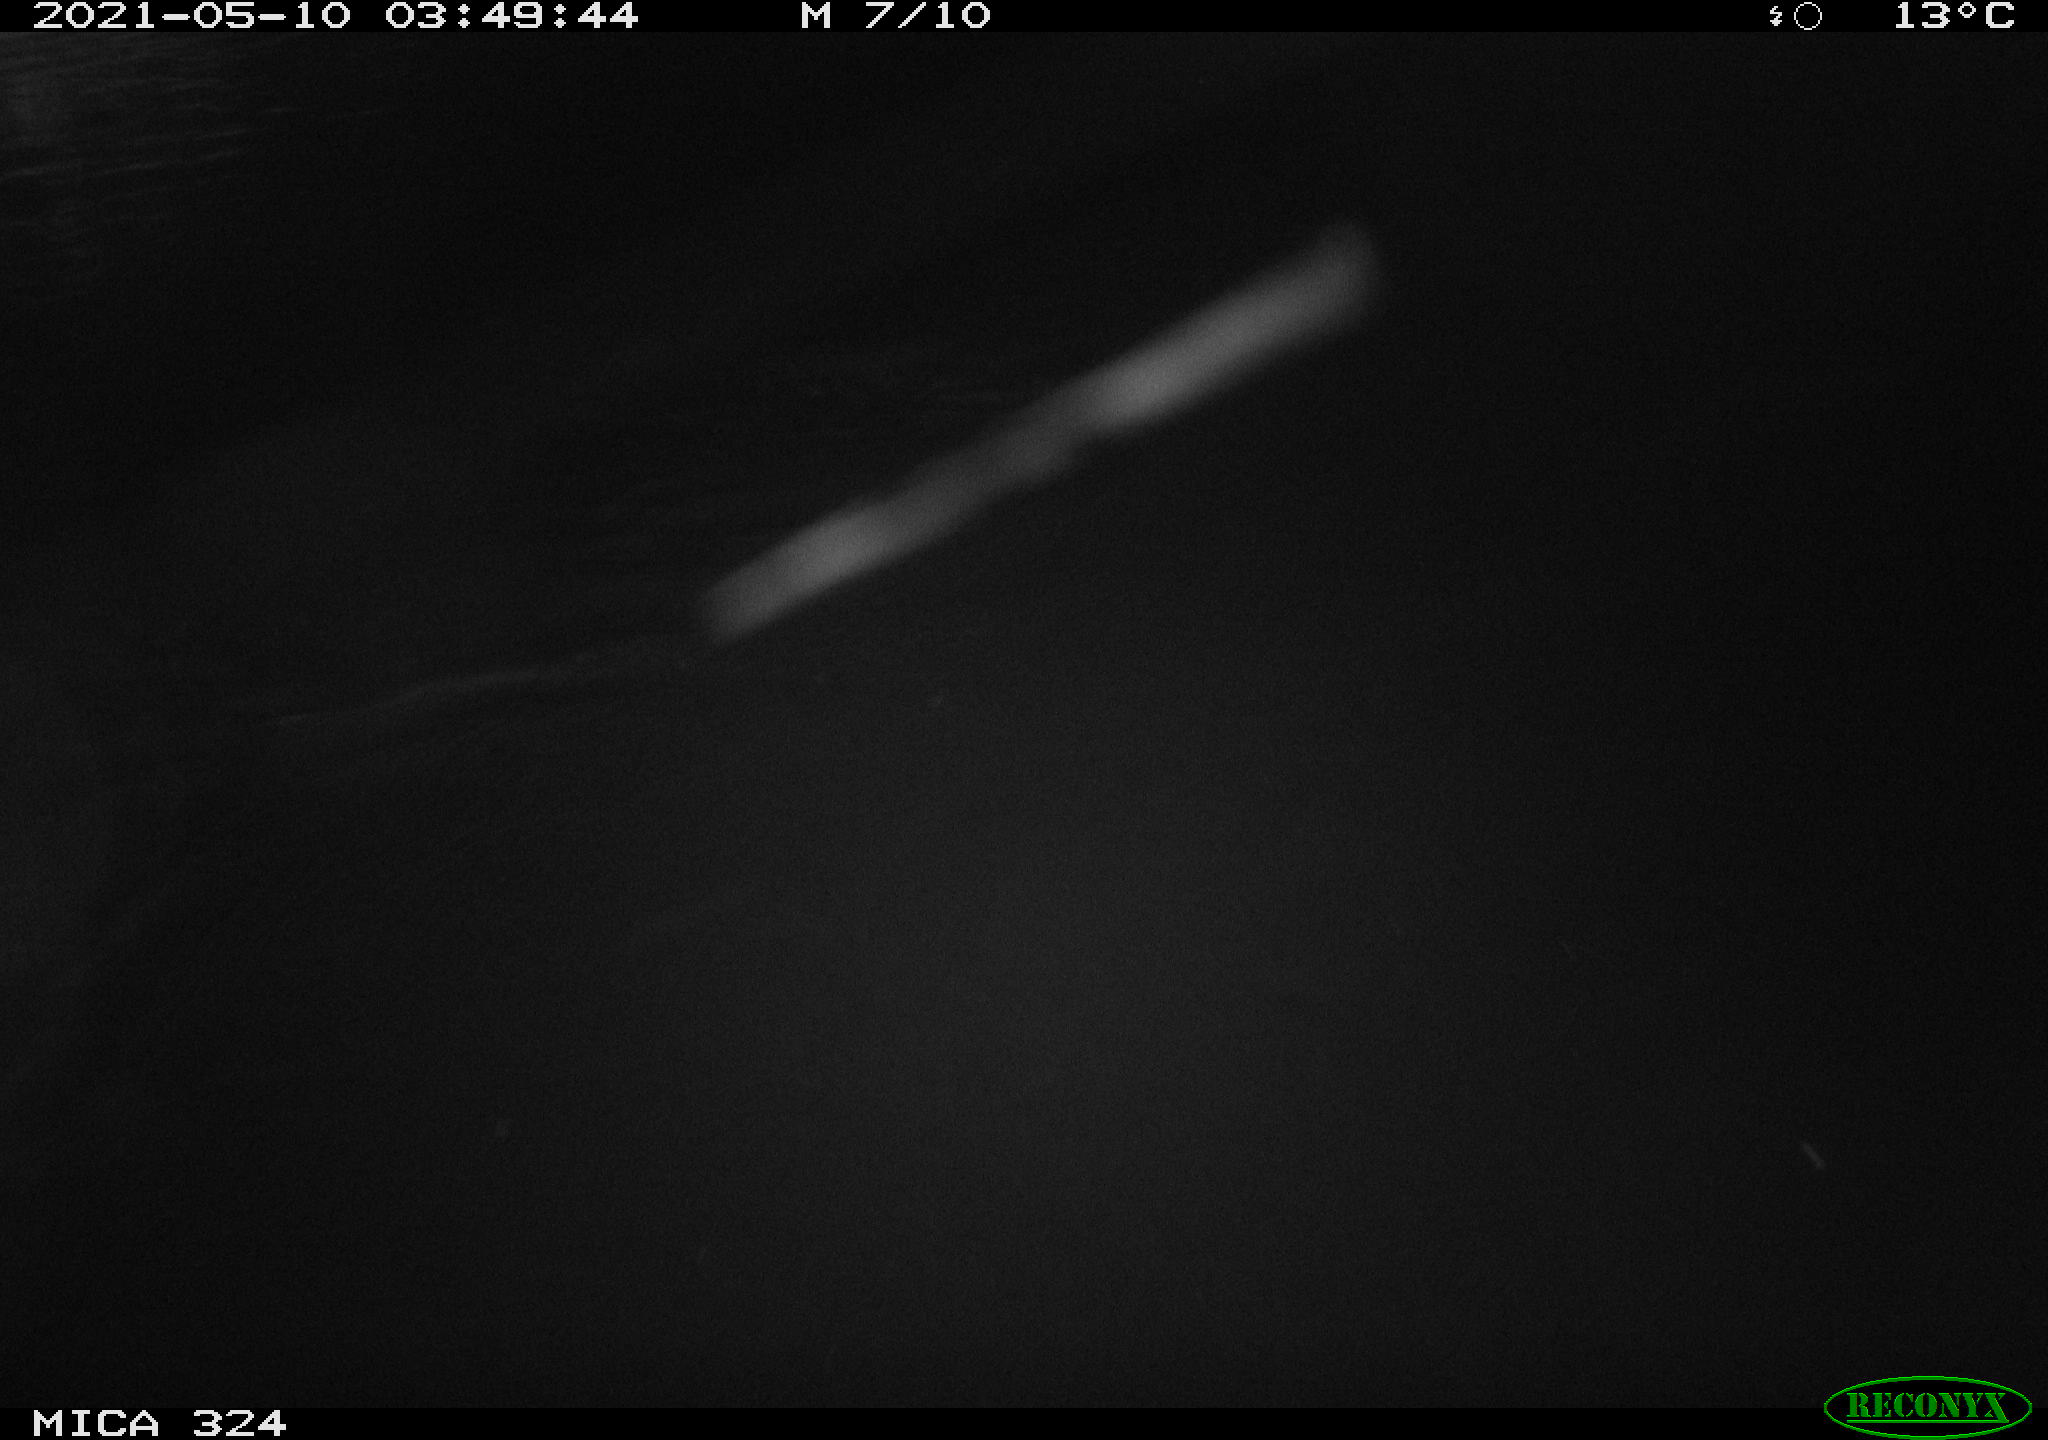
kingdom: Animalia
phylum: Chordata
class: Mammalia
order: Rodentia
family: Cricetidae
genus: Ondatra
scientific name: Ondatra zibethicus
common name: Muskrat
